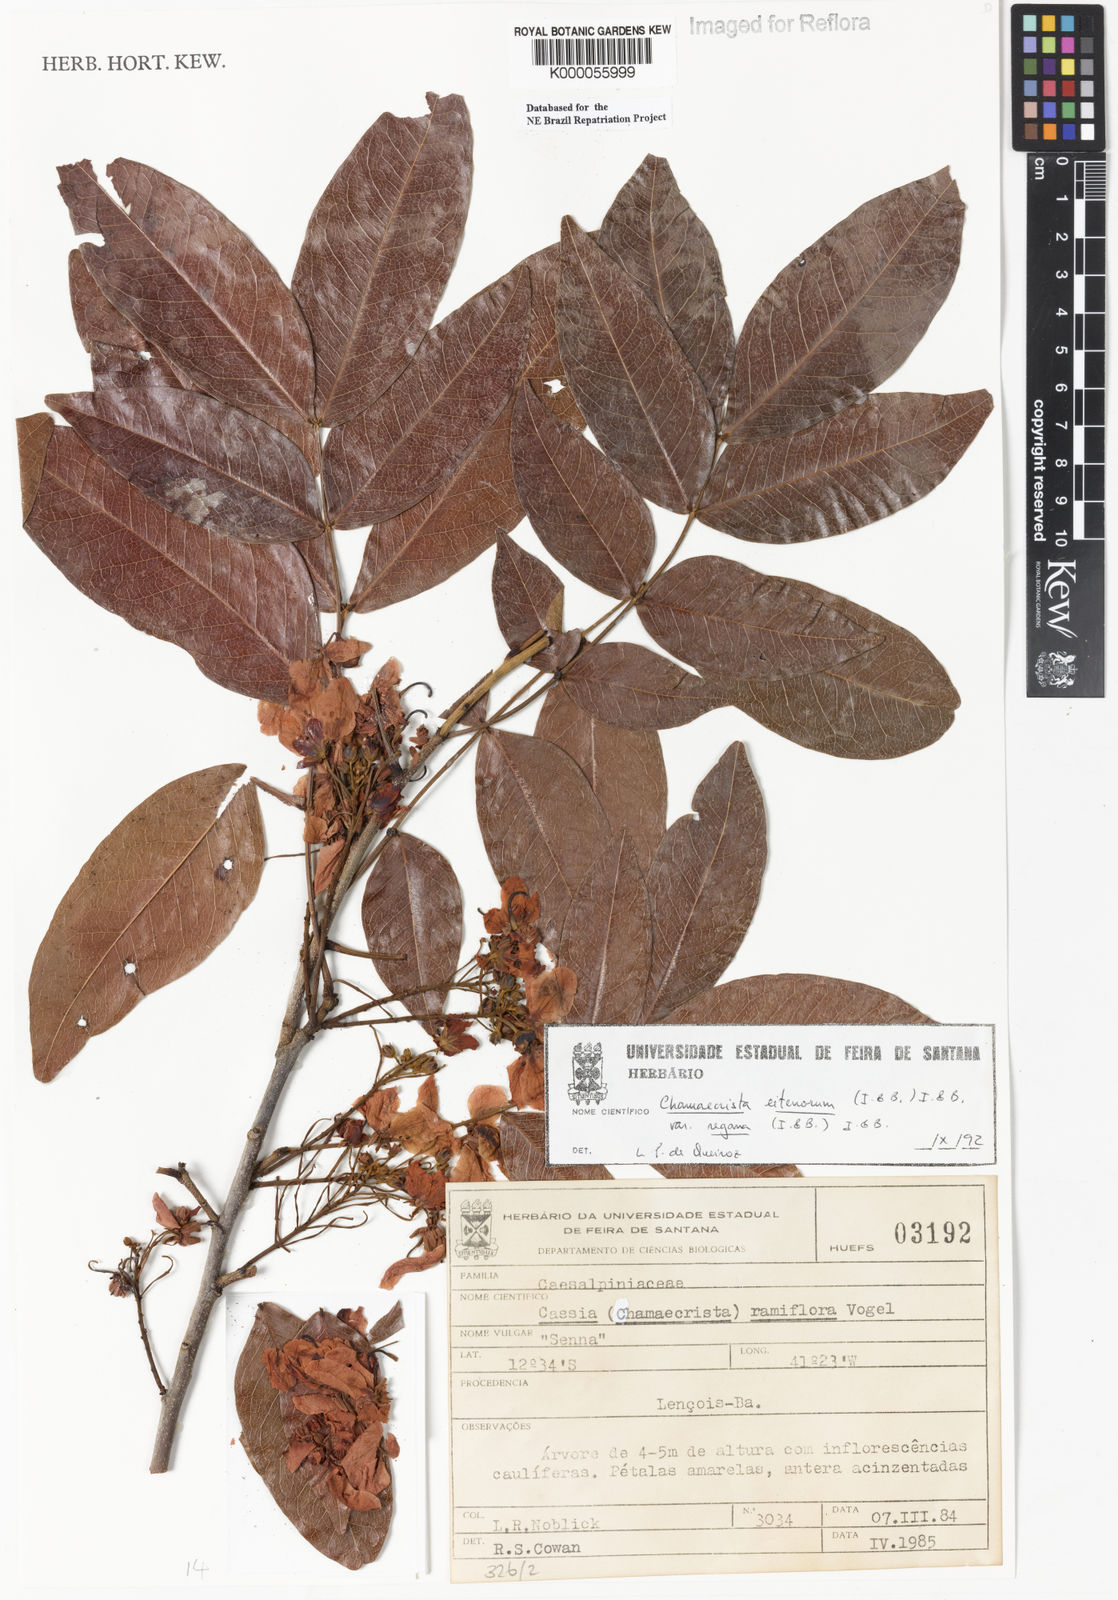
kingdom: Plantae
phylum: Tracheophyta
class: Magnoliopsida
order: Fabales
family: Fabaceae
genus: Chamaecrista
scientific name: Chamaecrista eitenorum
